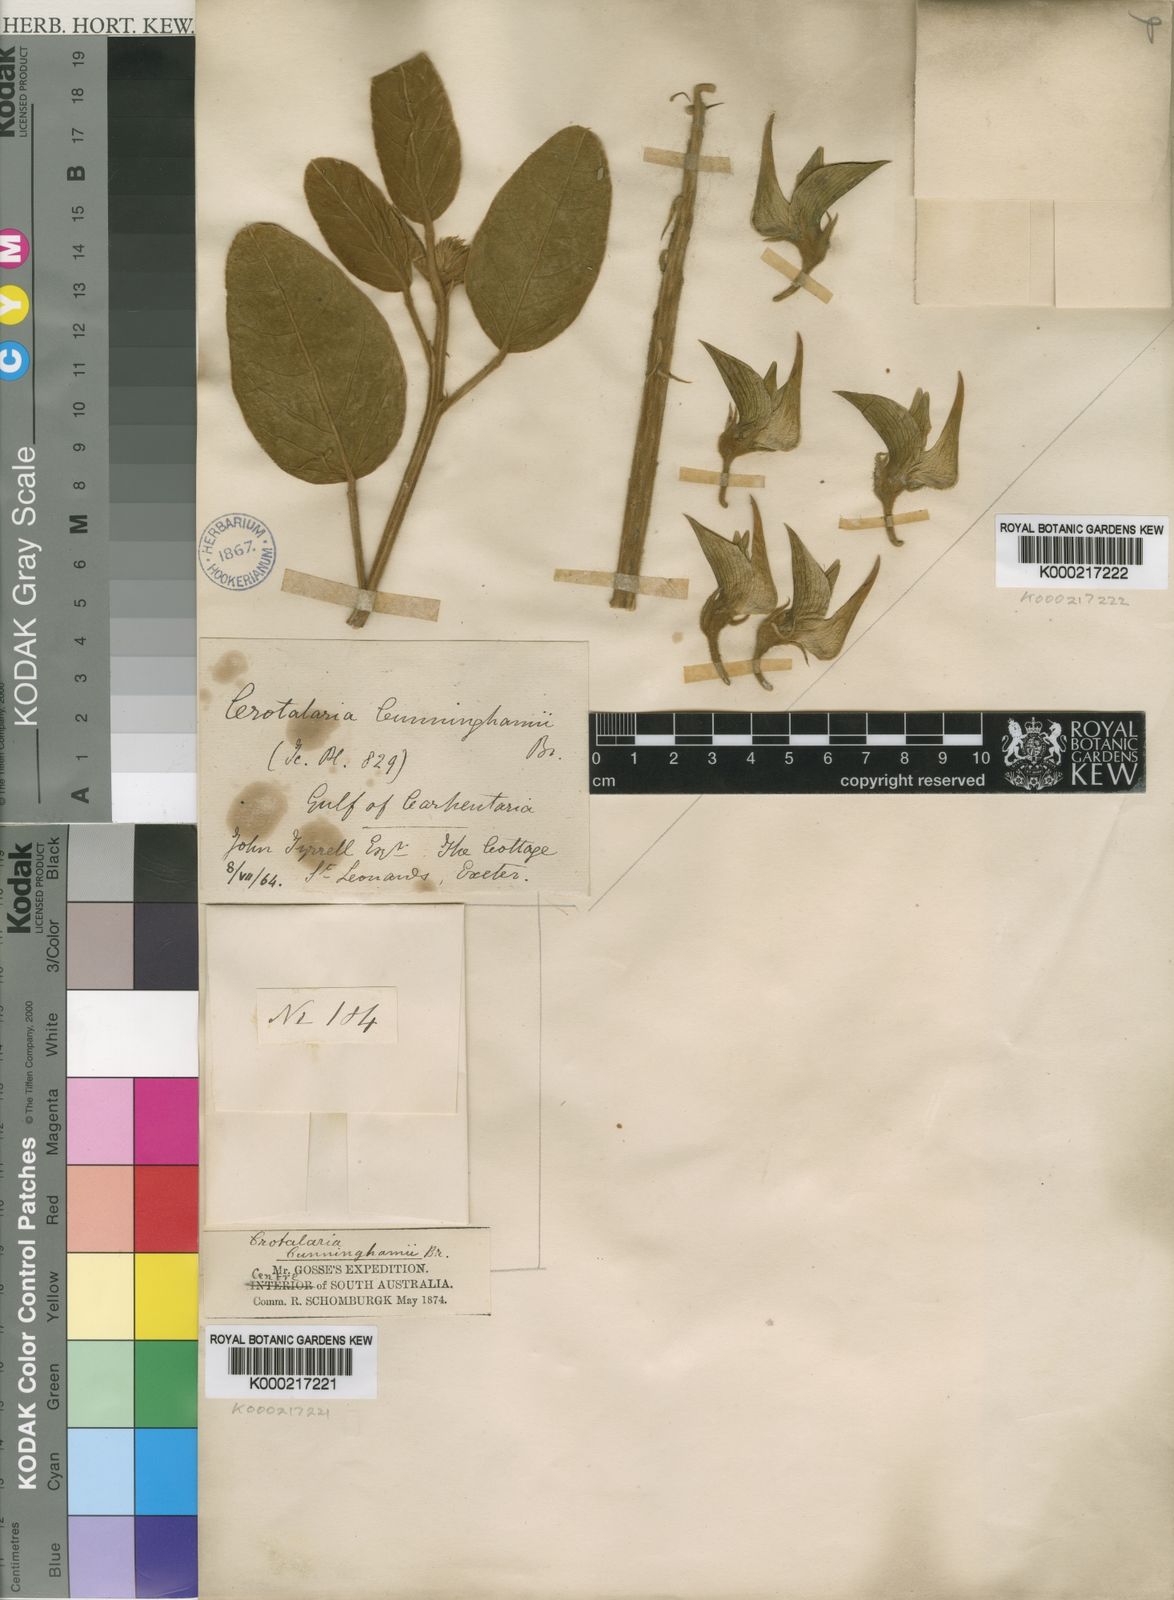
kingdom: Plantae
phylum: Tracheophyta
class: Magnoliopsida
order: Fabales
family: Fabaceae
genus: Crotalaria
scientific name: Crotalaria cunninghamii
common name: Birdflower rattlepod
